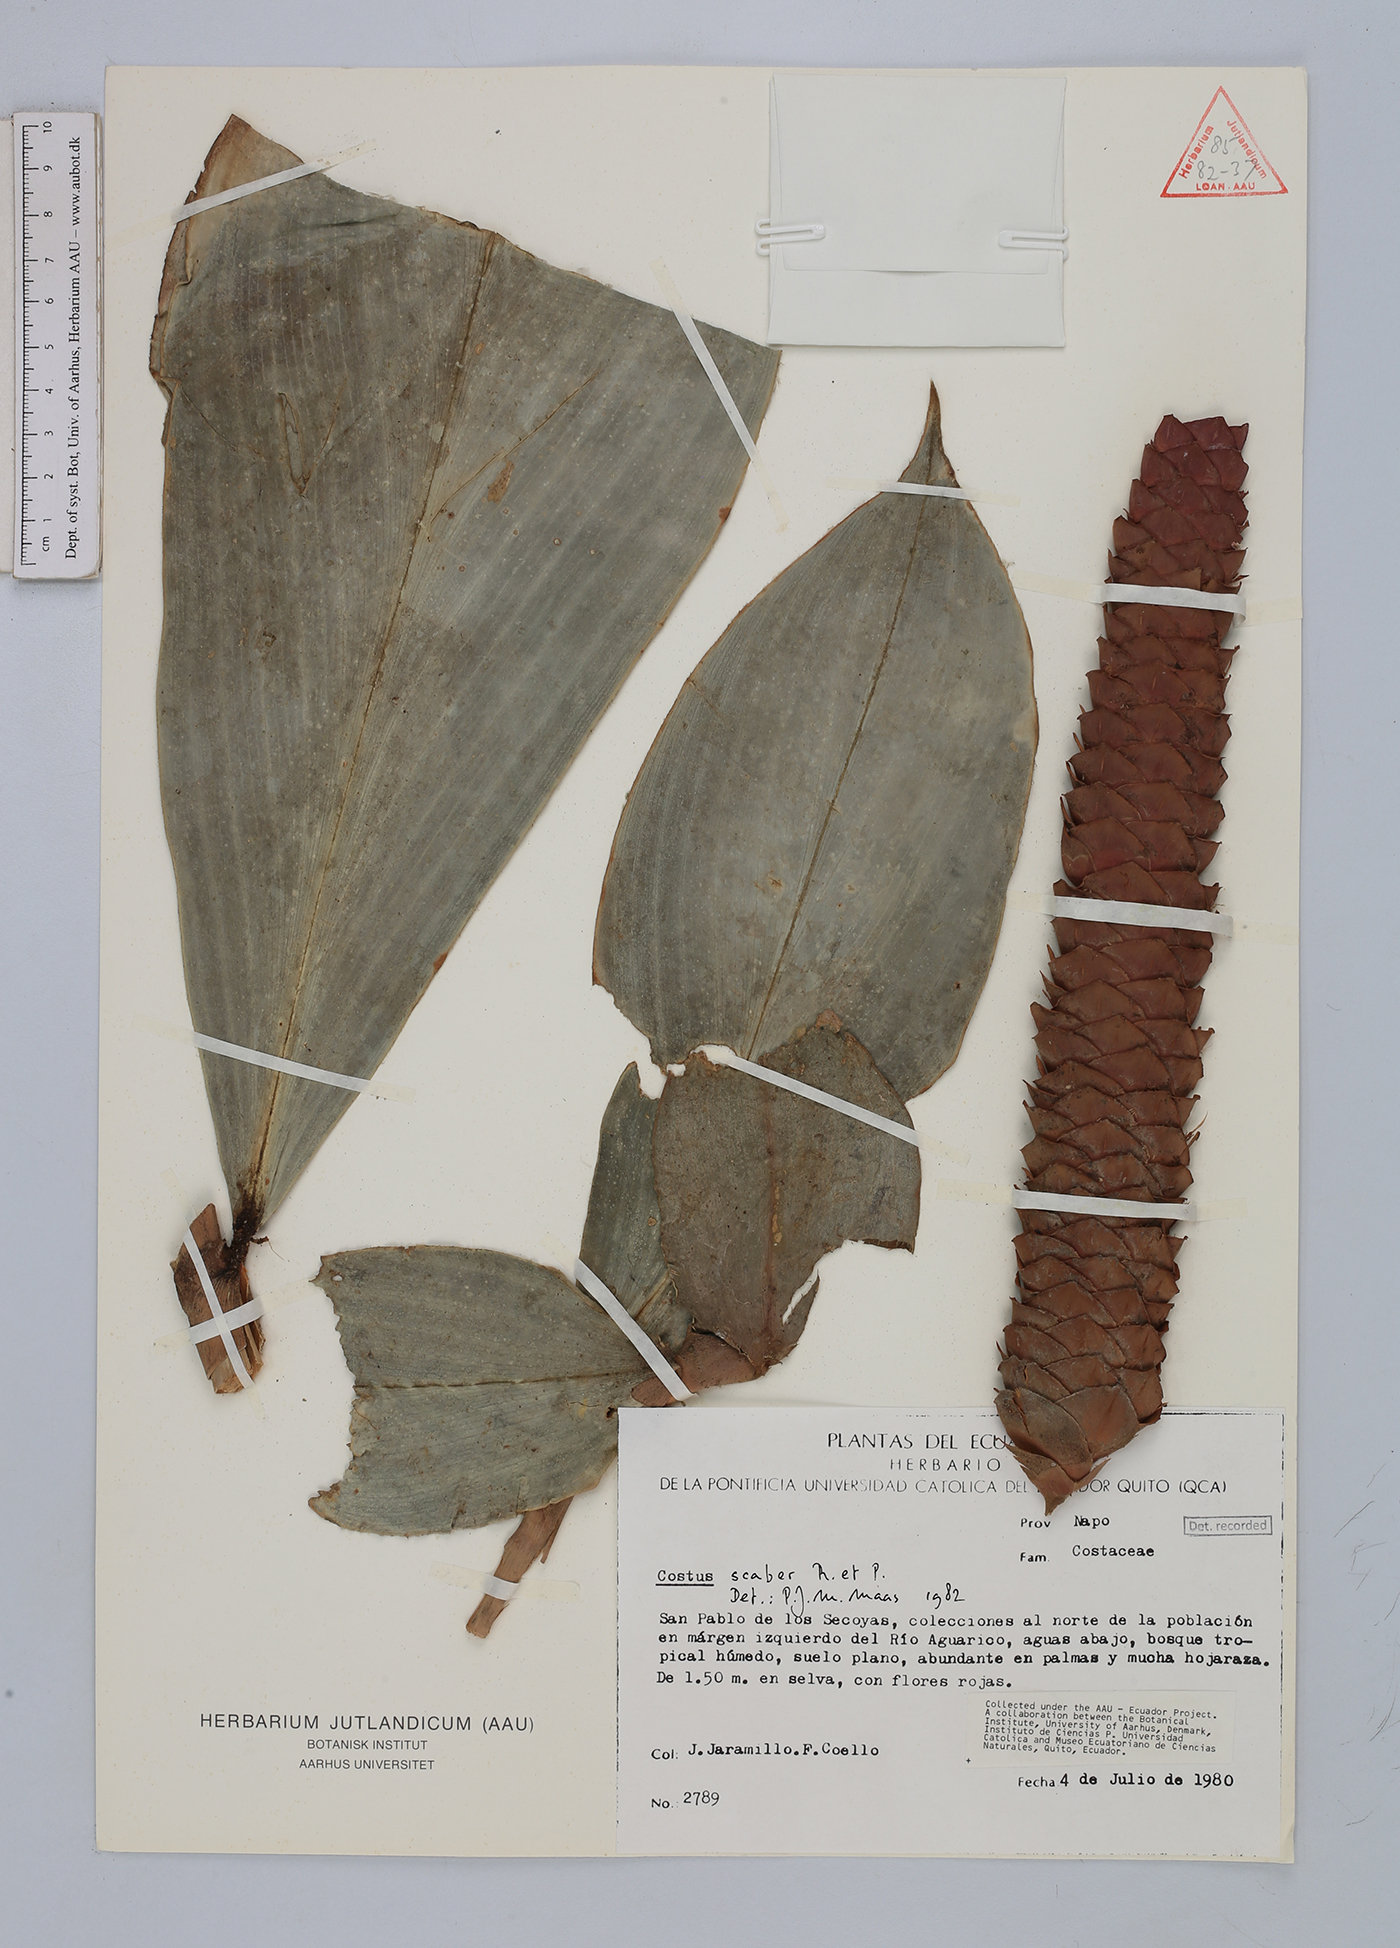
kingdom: Plantae
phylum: Tracheophyta
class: Liliopsida
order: Zingiberales
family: Costaceae
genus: Costus
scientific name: Costus scaber
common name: Spiral head ginger
